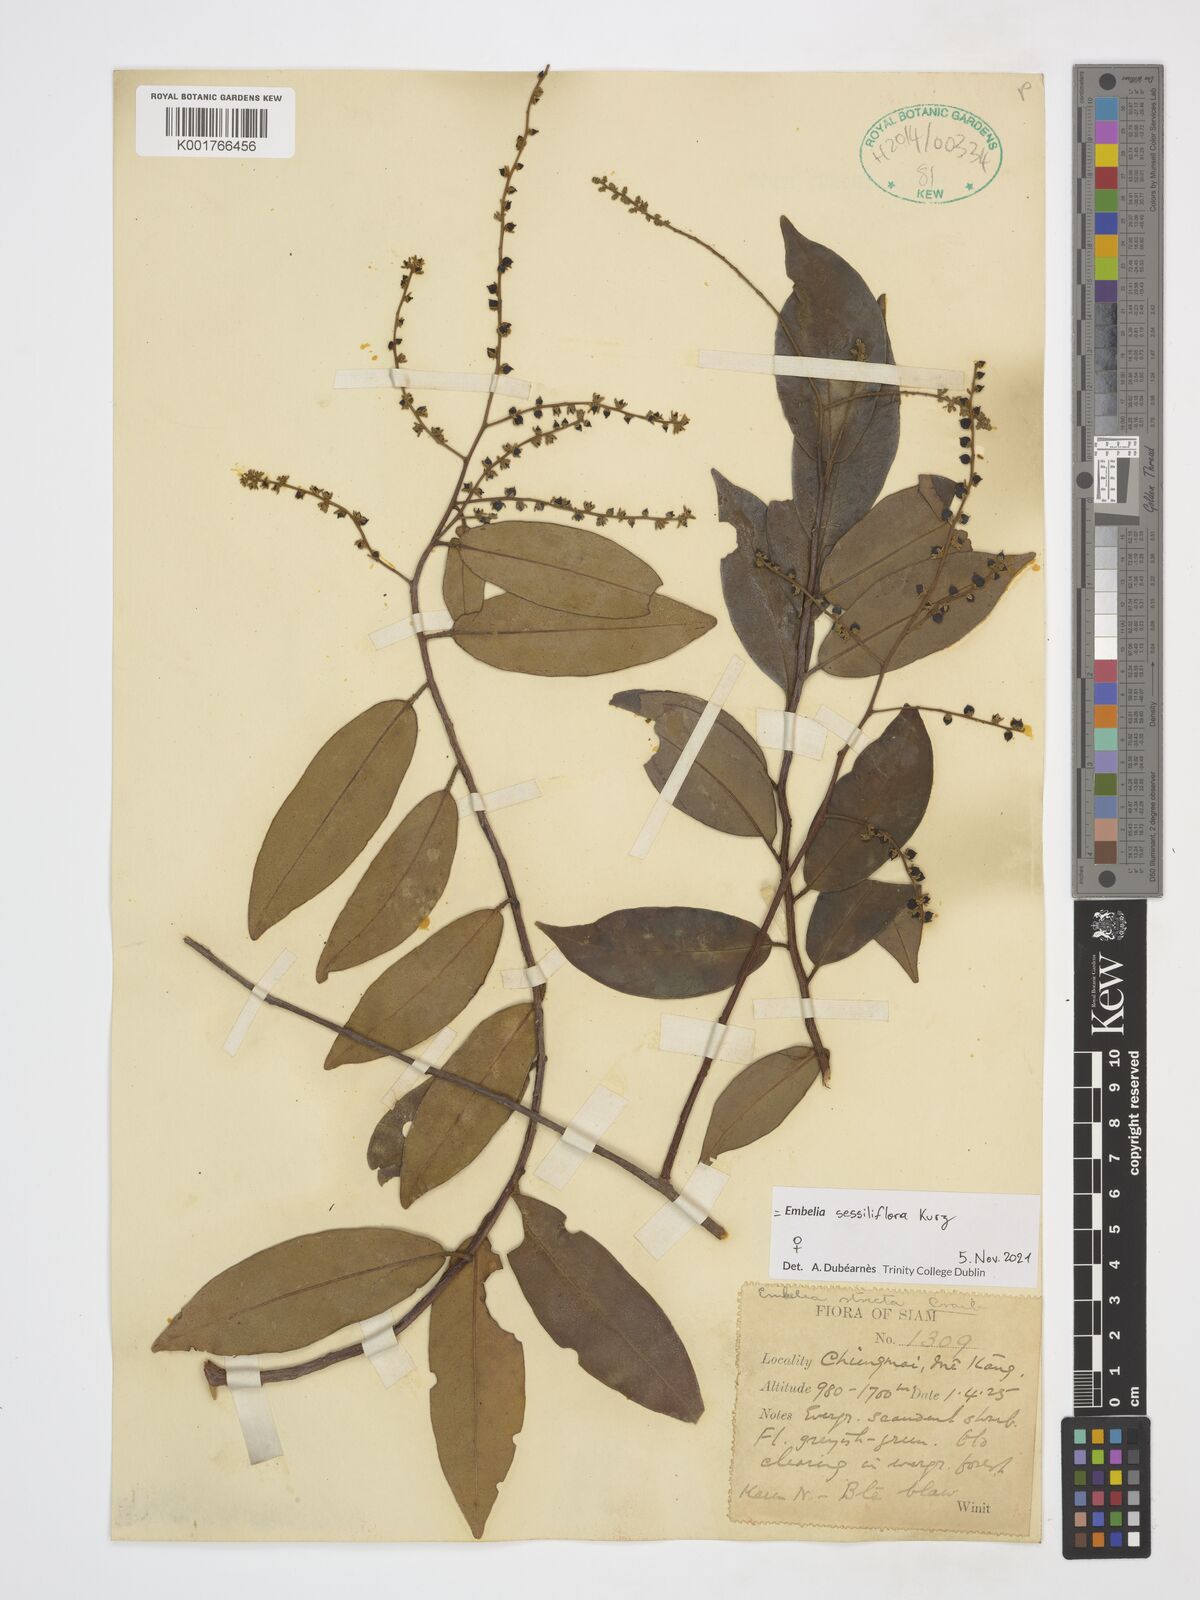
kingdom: Plantae
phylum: Tracheophyta
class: Magnoliopsida
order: Ericales
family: Primulaceae
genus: Embelia
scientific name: Embelia sessiliflora
